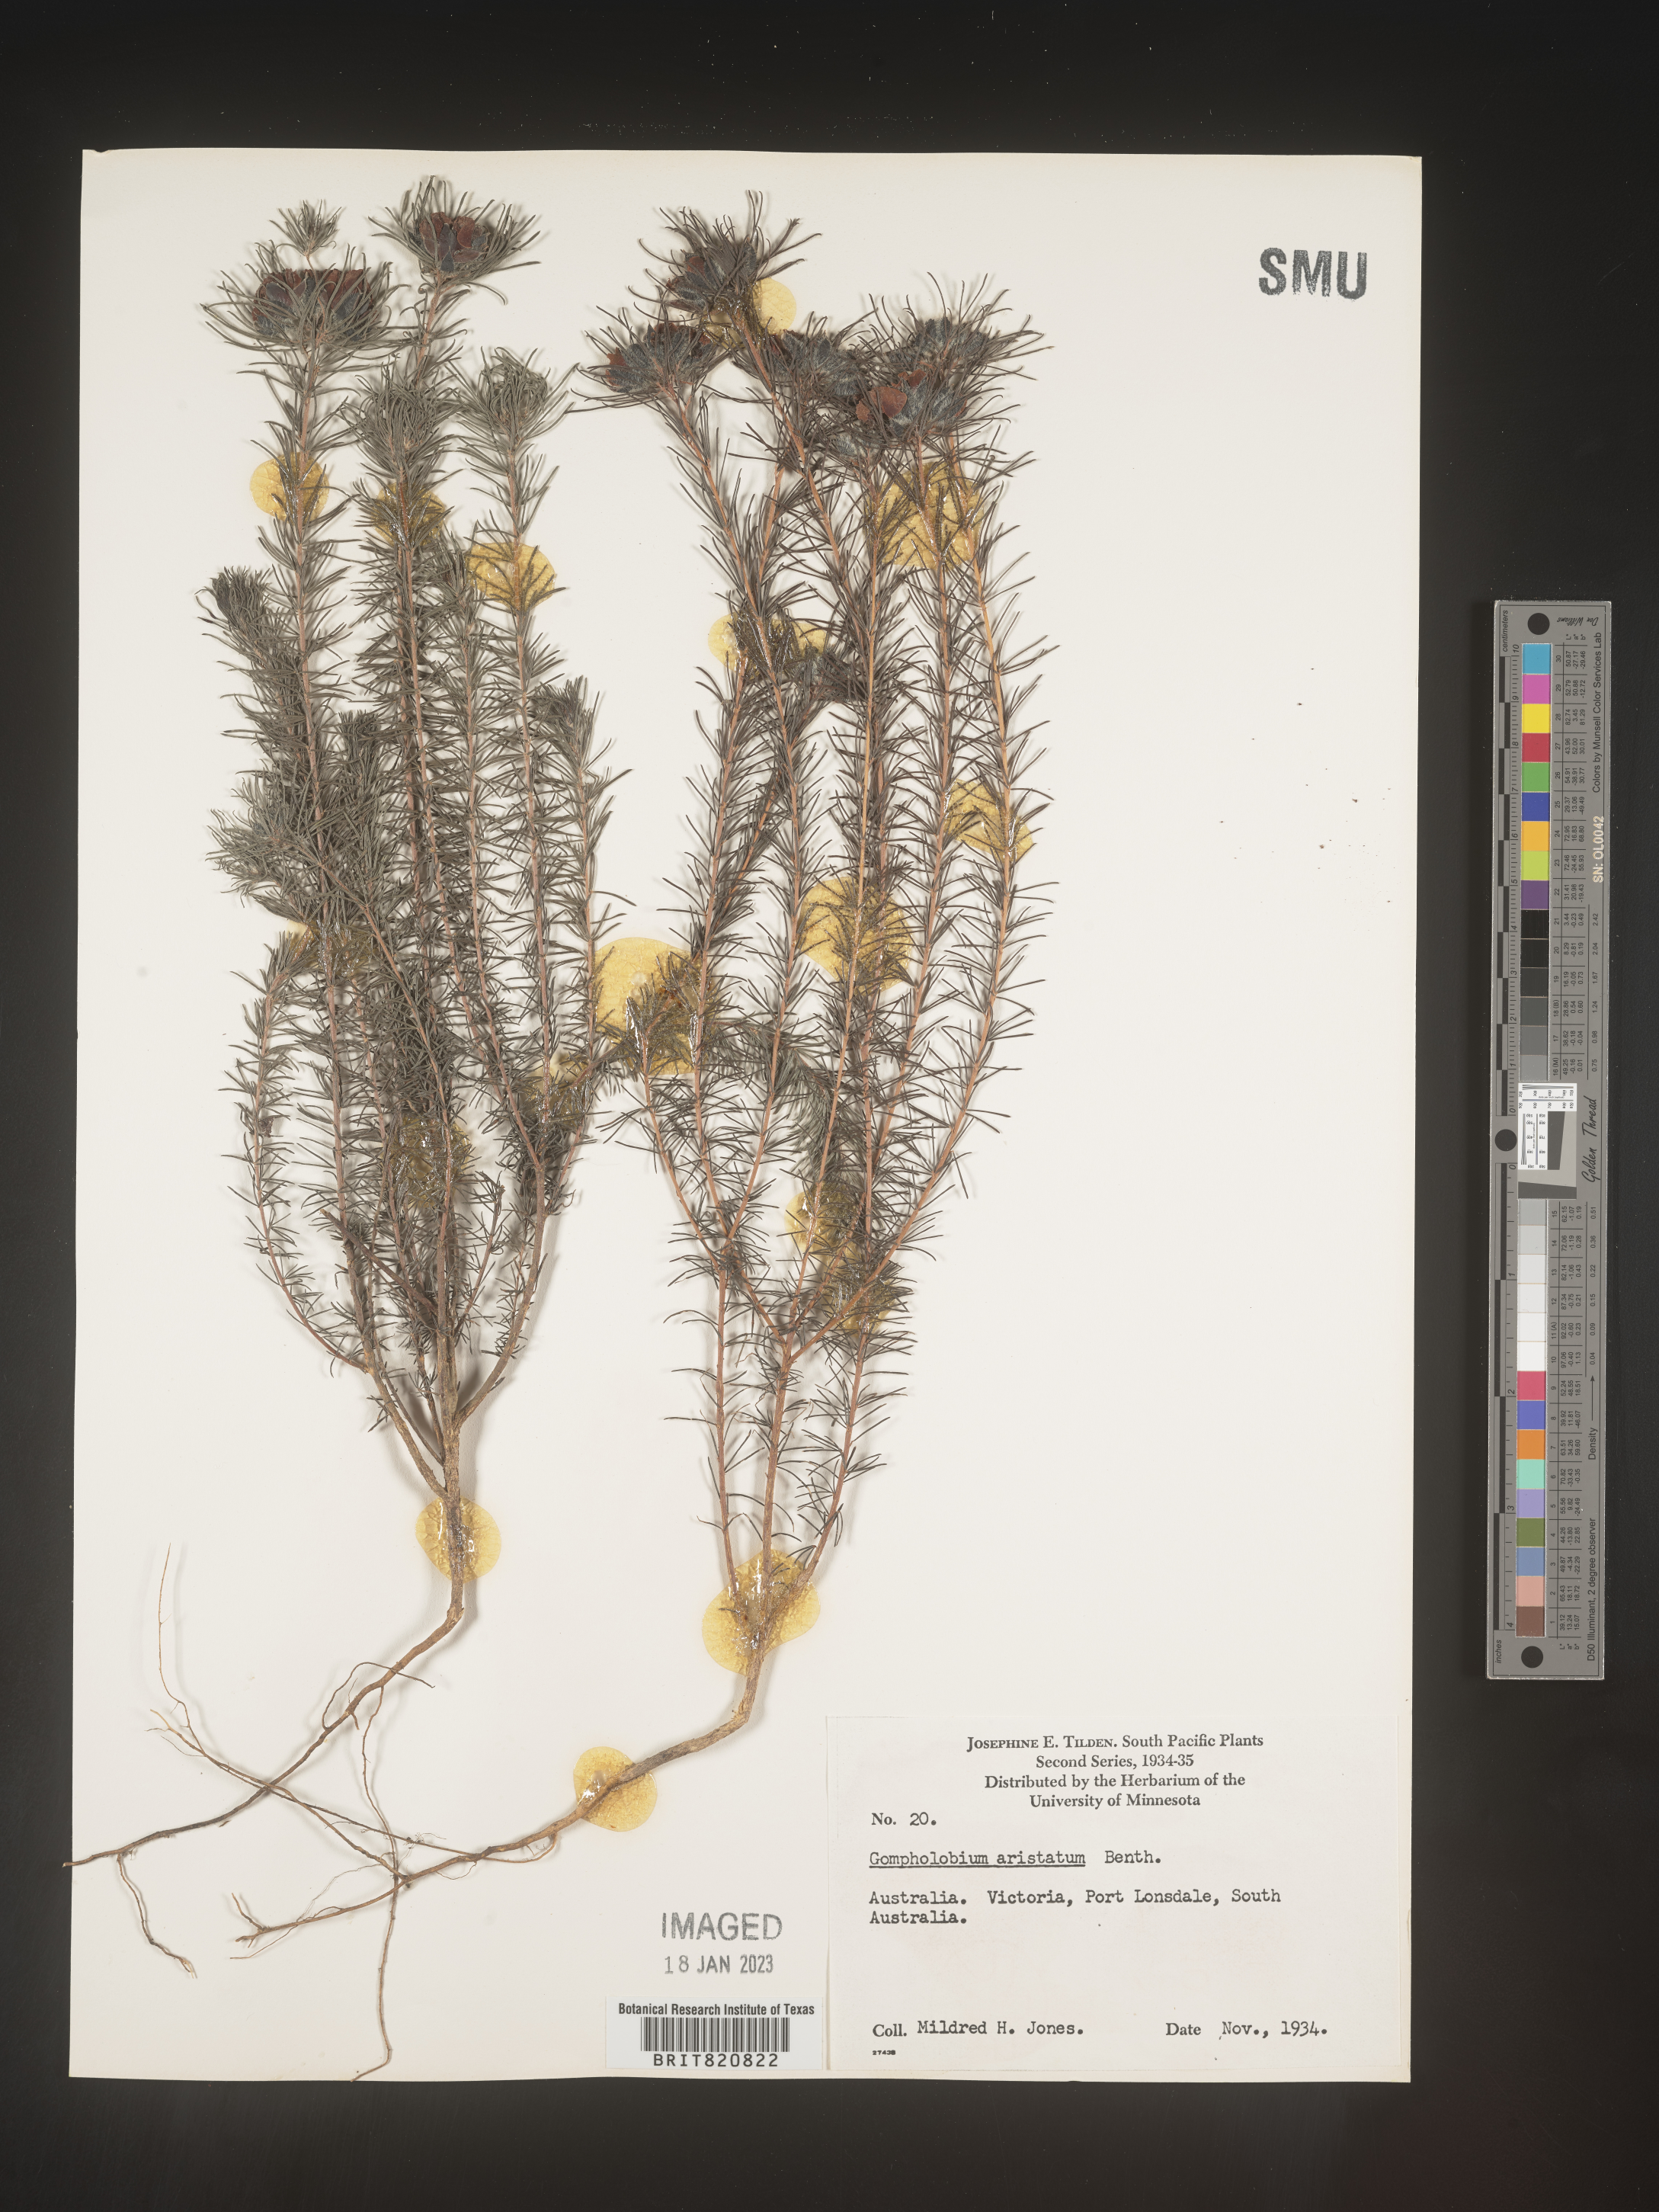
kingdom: Plantae
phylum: Tracheophyta
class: Magnoliopsida
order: Fabales
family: Fabaceae
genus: Gompholobium
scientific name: Gompholobium
